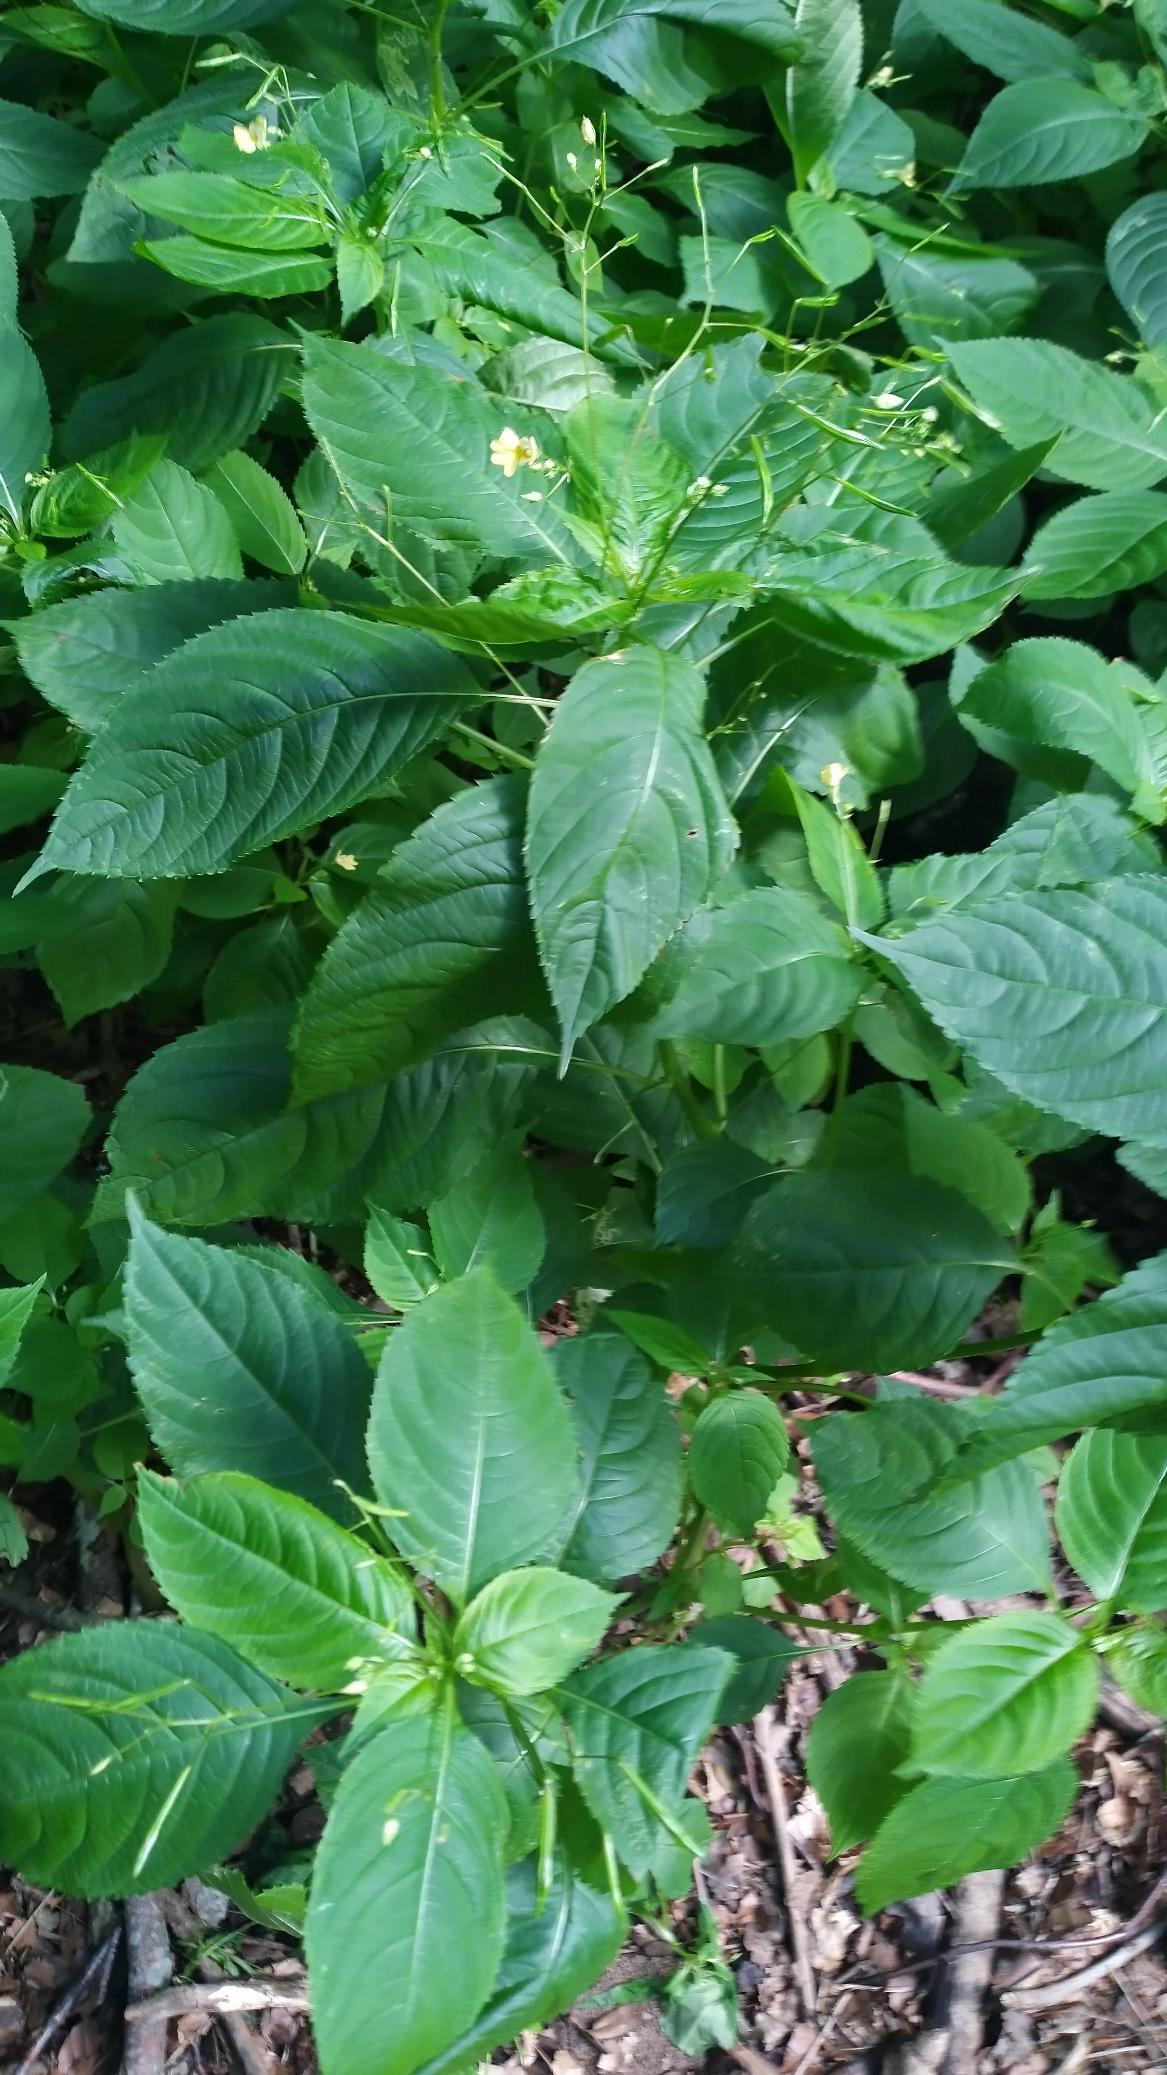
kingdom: Plantae
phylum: Tracheophyta
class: Magnoliopsida
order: Ericales
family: Balsaminaceae
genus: Impatiens
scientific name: Impatiens parviflora
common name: Småblomstret balsamin
